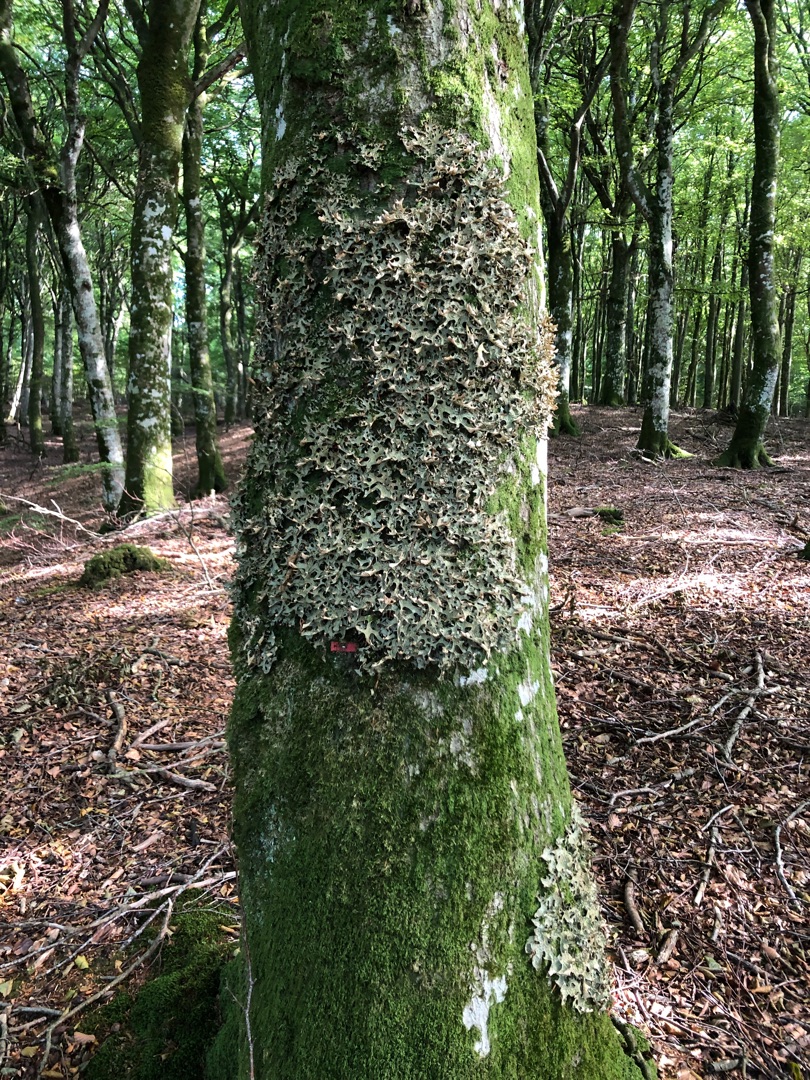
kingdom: Fungi
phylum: Ascomycota
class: Lecanoromycetes
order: Peltigerales
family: Lobariaceae
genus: Lobaria
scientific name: Lobaria pulmonaria
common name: Almindelig lungelav
